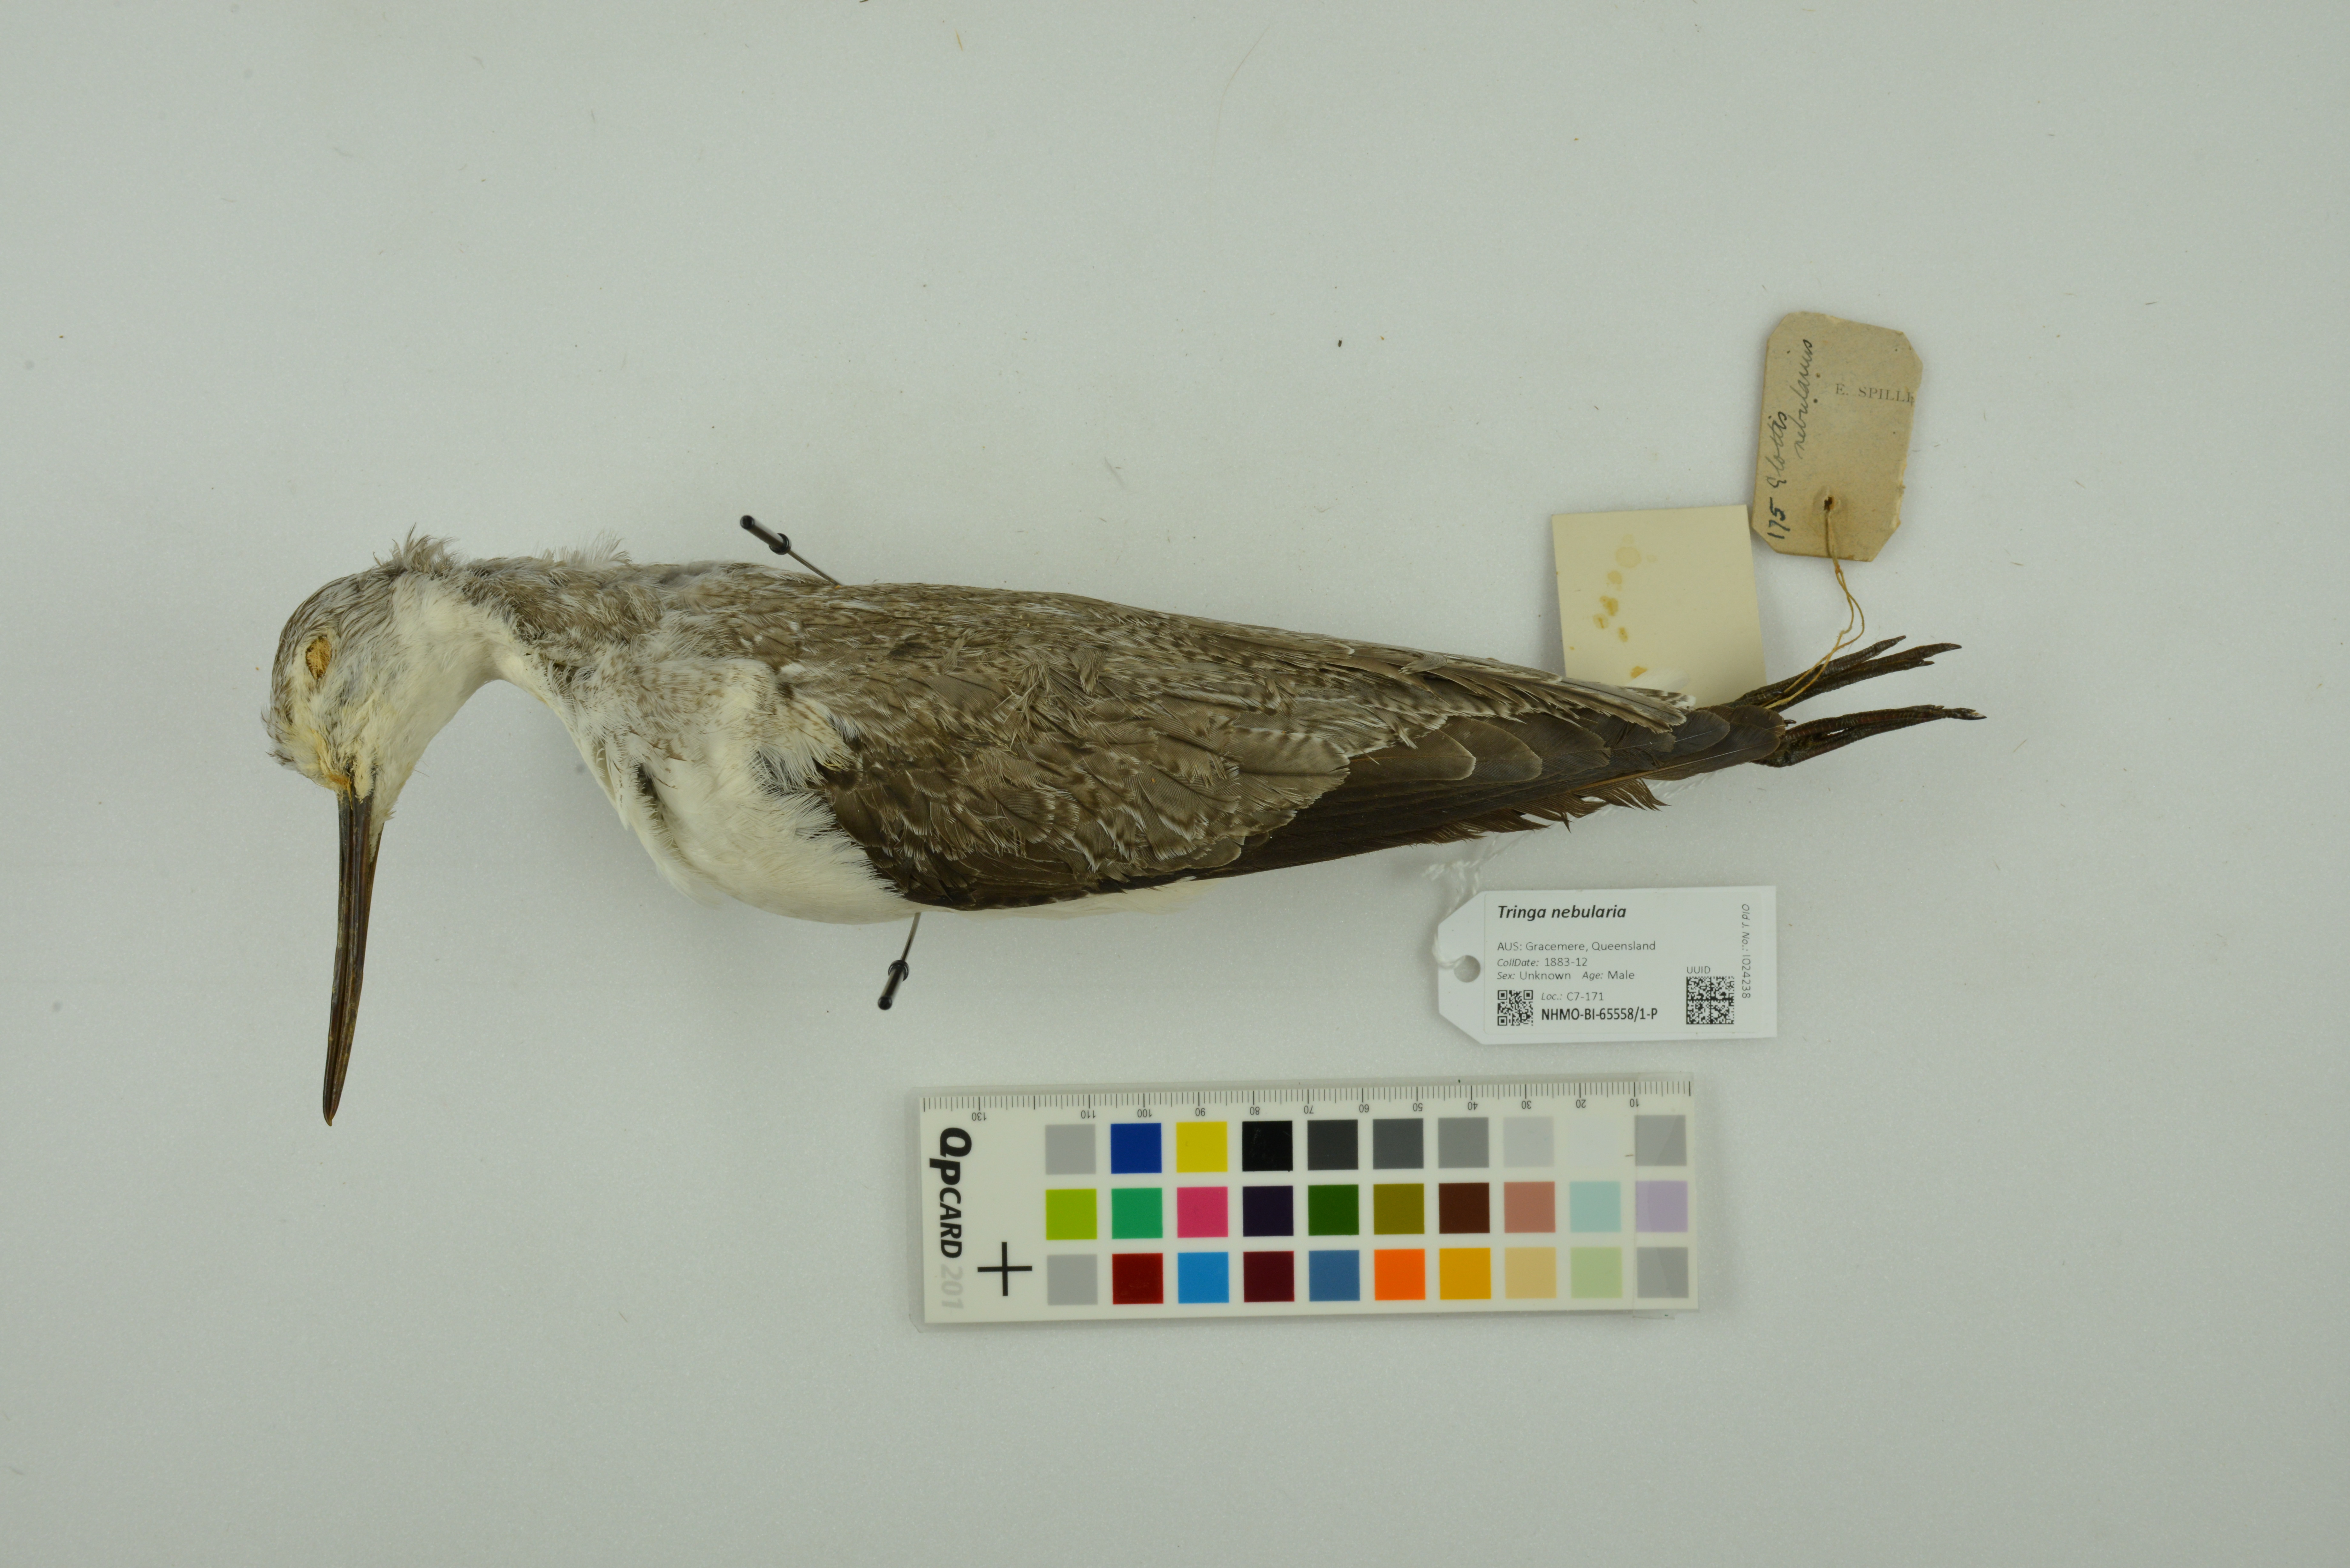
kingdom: Animalia
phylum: Chordata
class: Aves
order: Charadriiformes
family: Scolopacidae
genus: Tringa
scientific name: Tringa nebularia
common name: Common greenshank
